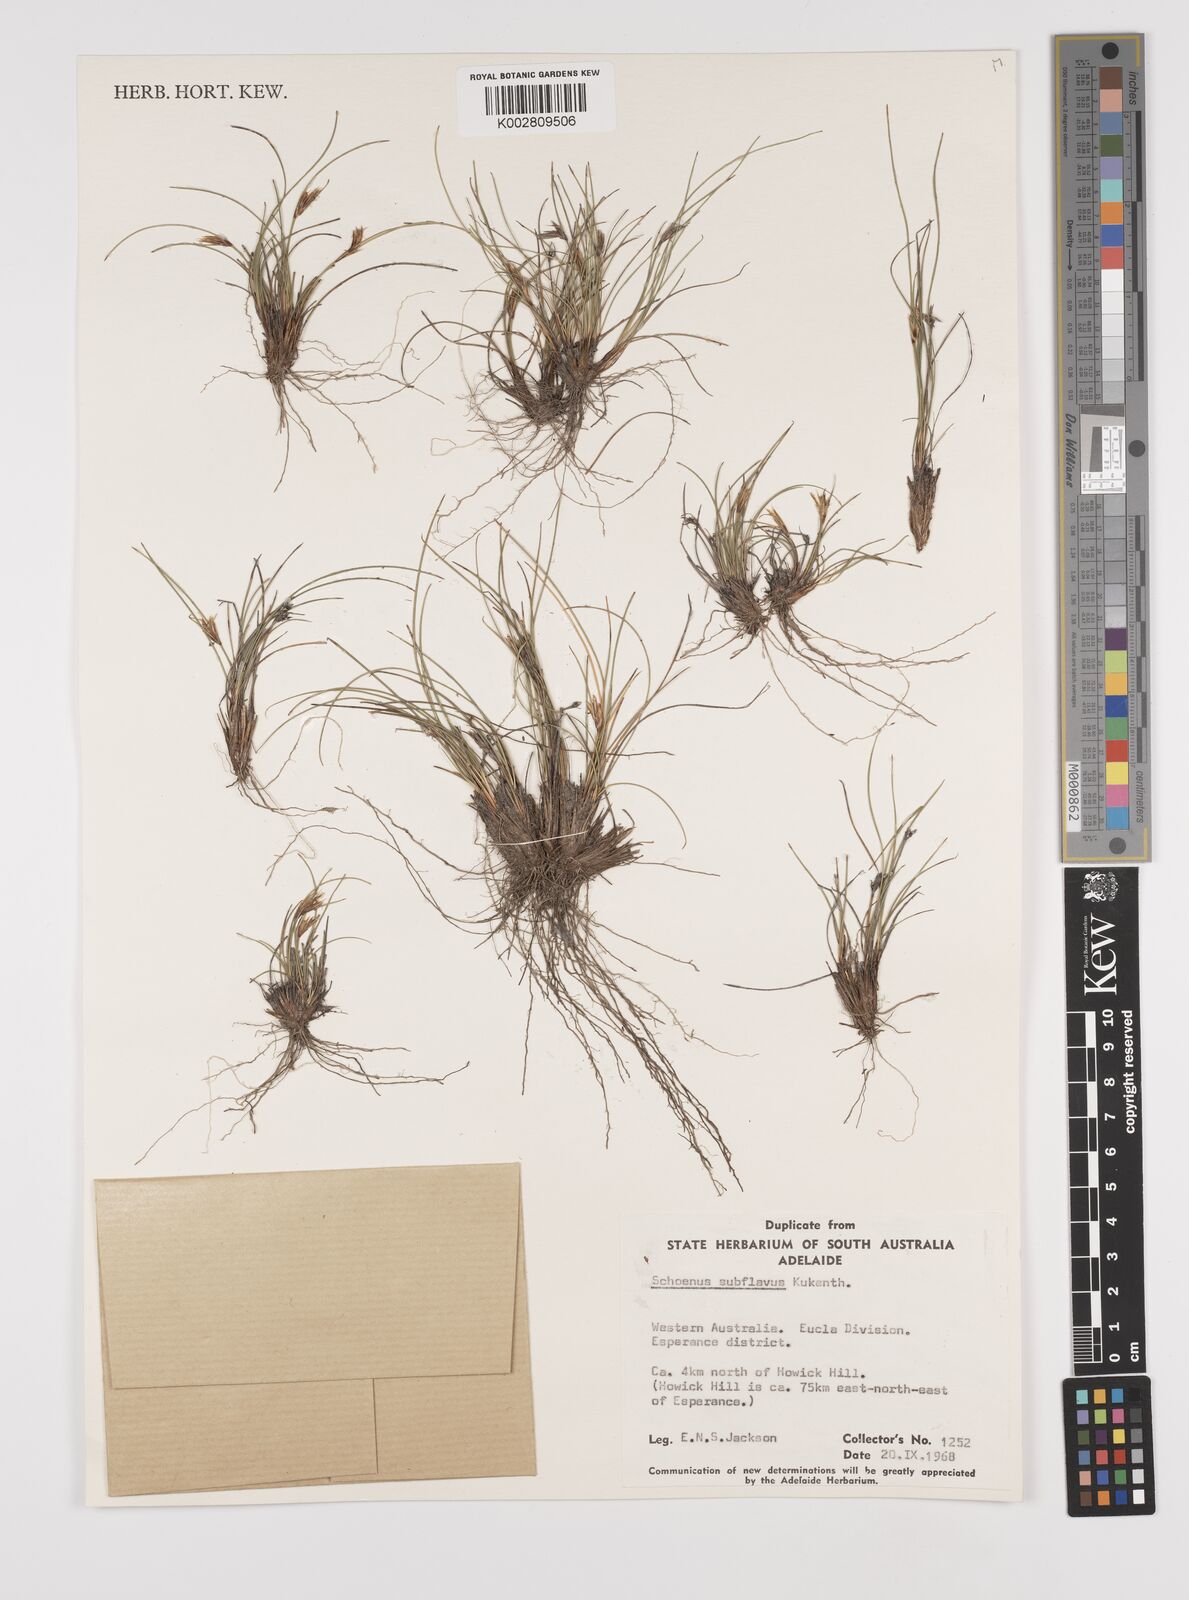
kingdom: Plantae
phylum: Tracheophyta
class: Liliopsida
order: Poales
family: Cyperaceae
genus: Schoenus
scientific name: Schoenus subflavus
